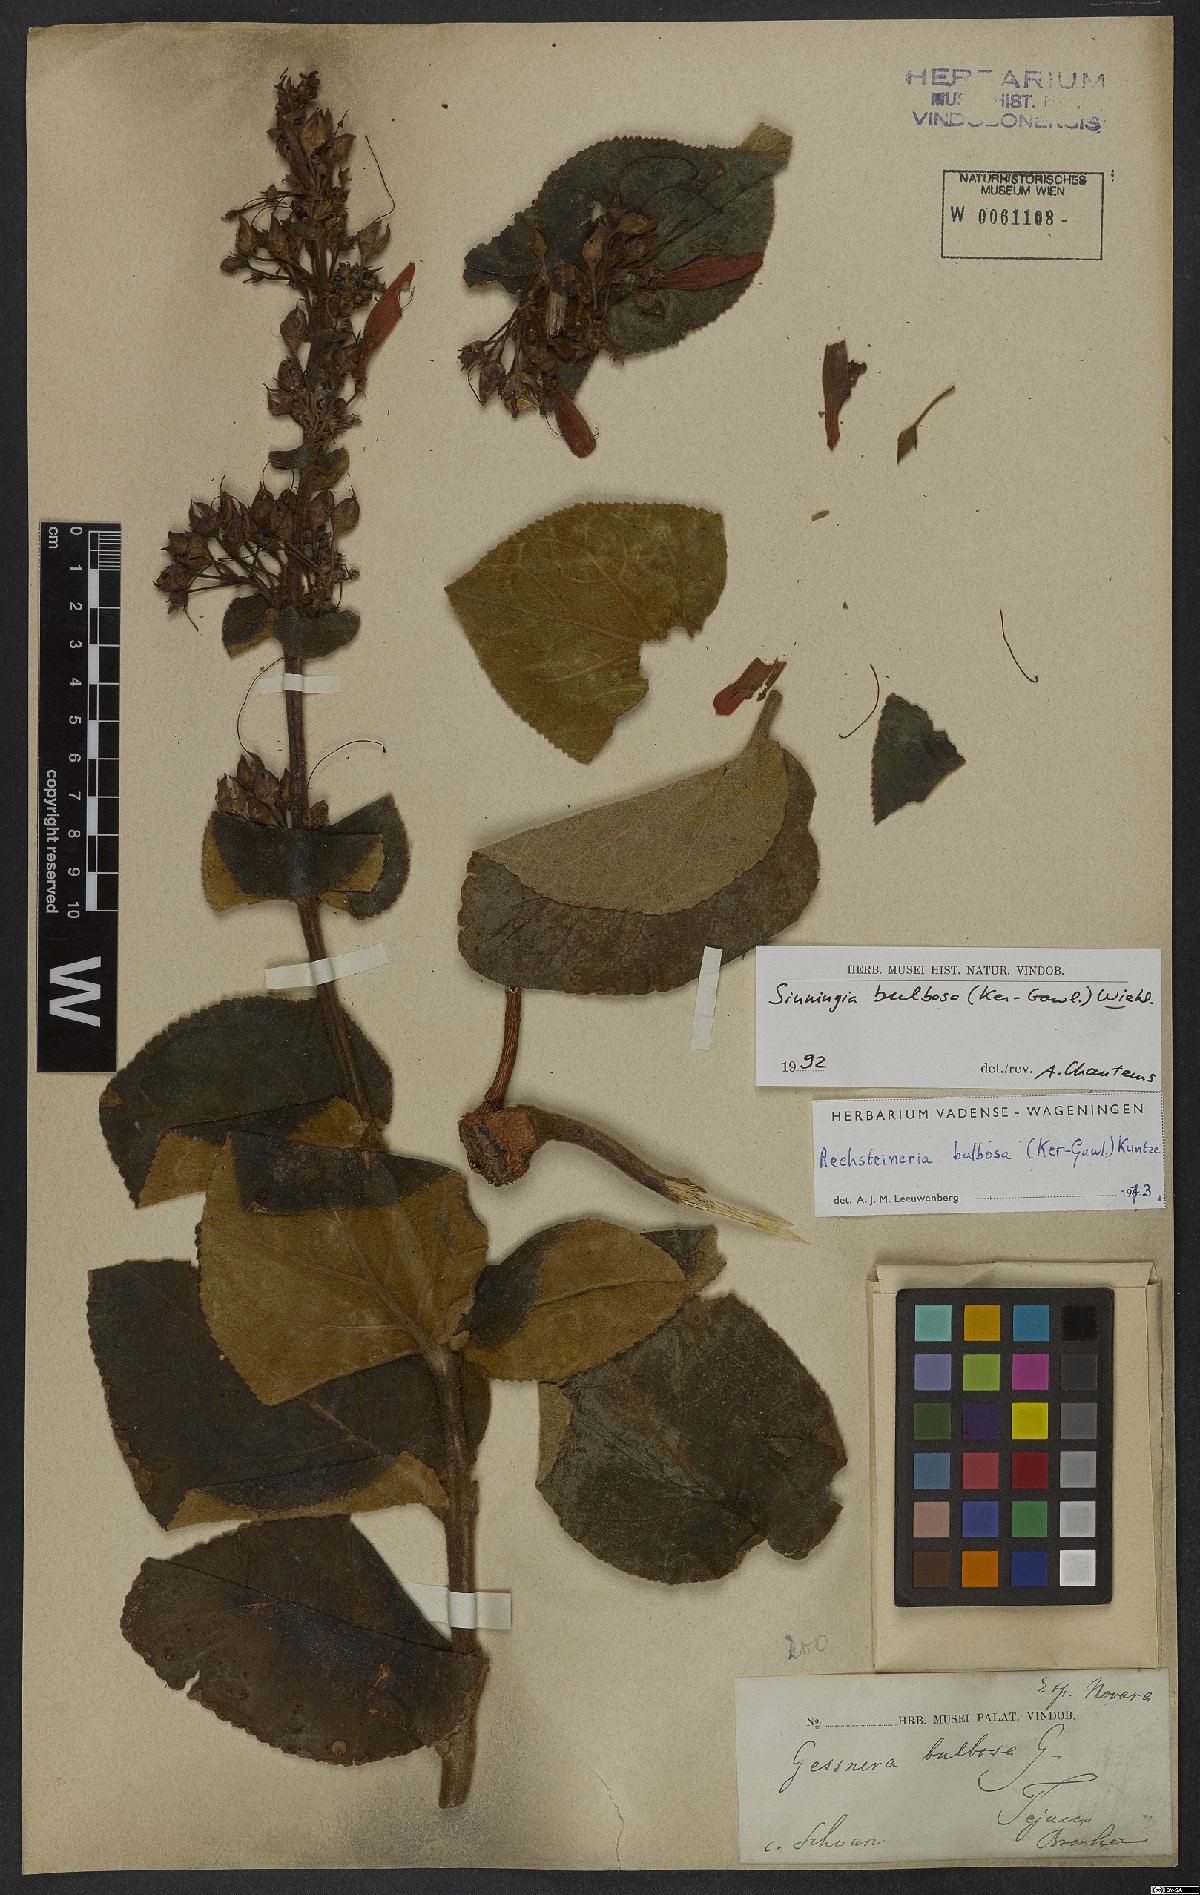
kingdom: Plantae
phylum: Tracheophyta
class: Magnoliopsida
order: Lamiales
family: Gesneriaceae
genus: Sinningia
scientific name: Sinningia bulbosa
